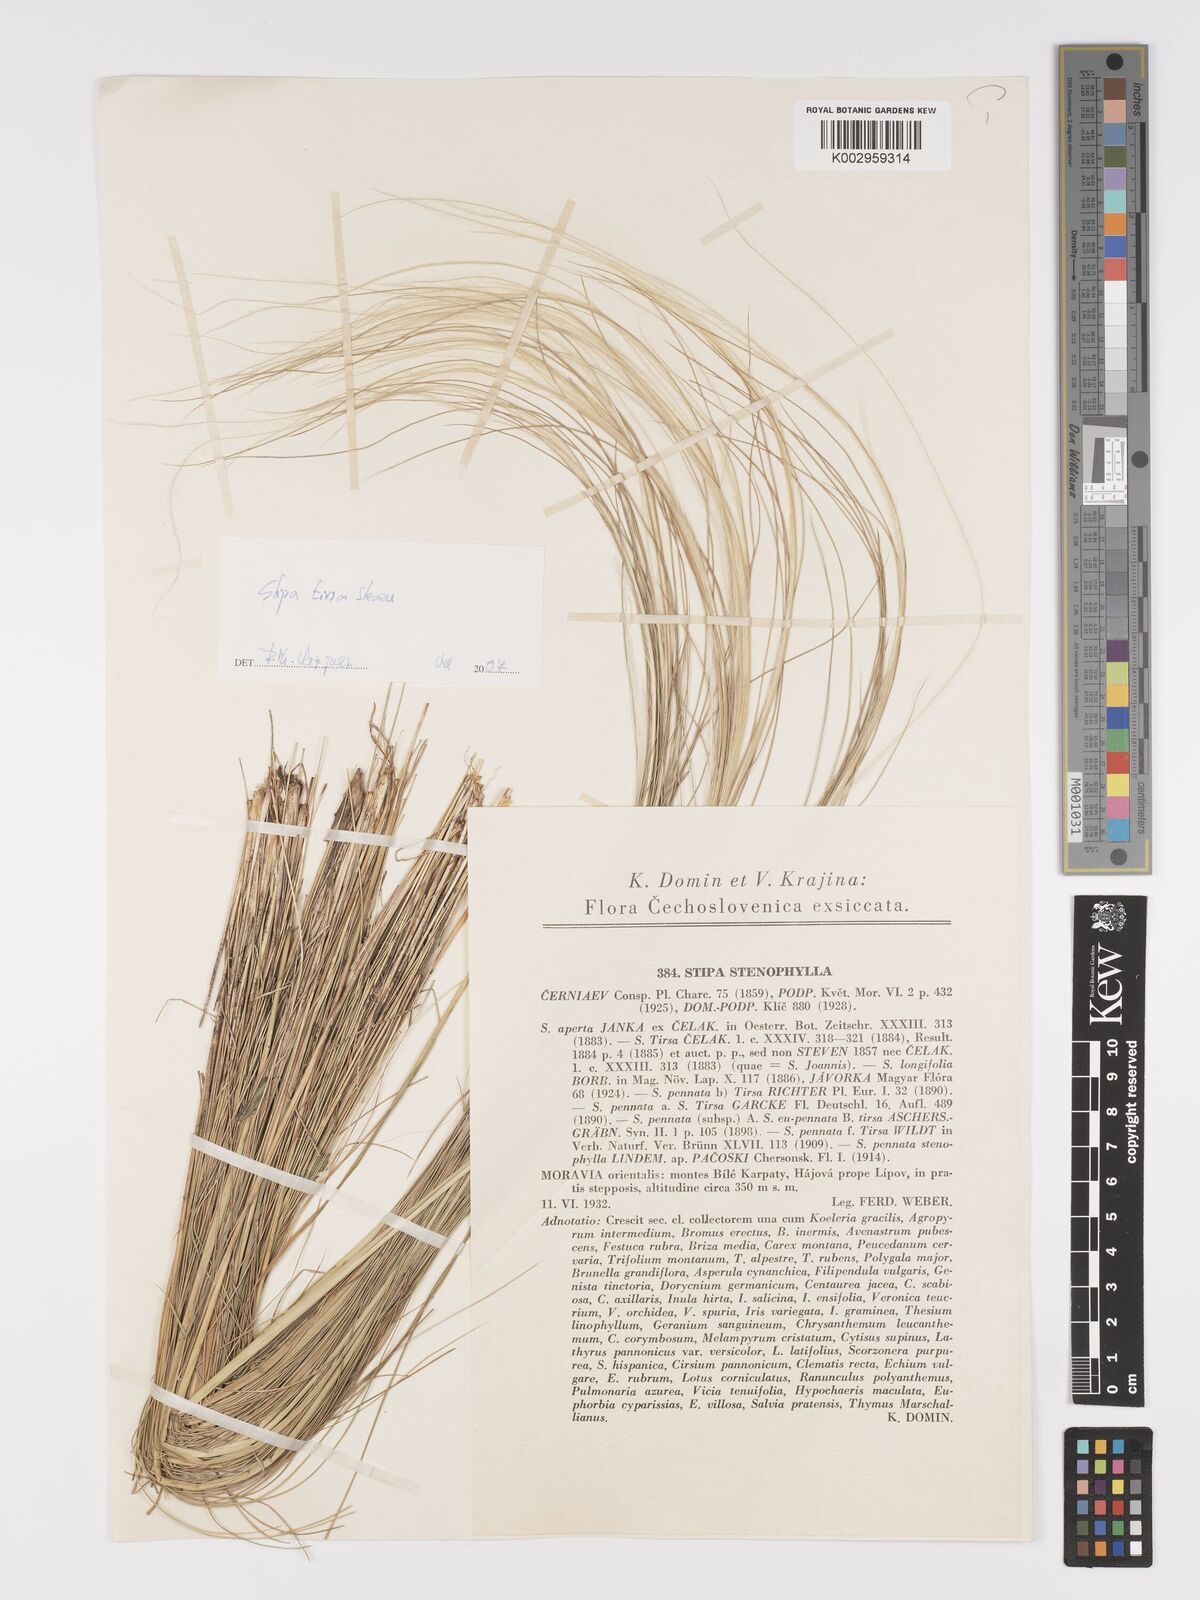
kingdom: Plantae
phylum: Tracheophyta
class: Liliopsida
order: Poales
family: Poaceae
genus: Stipa
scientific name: Stipa tirsa
